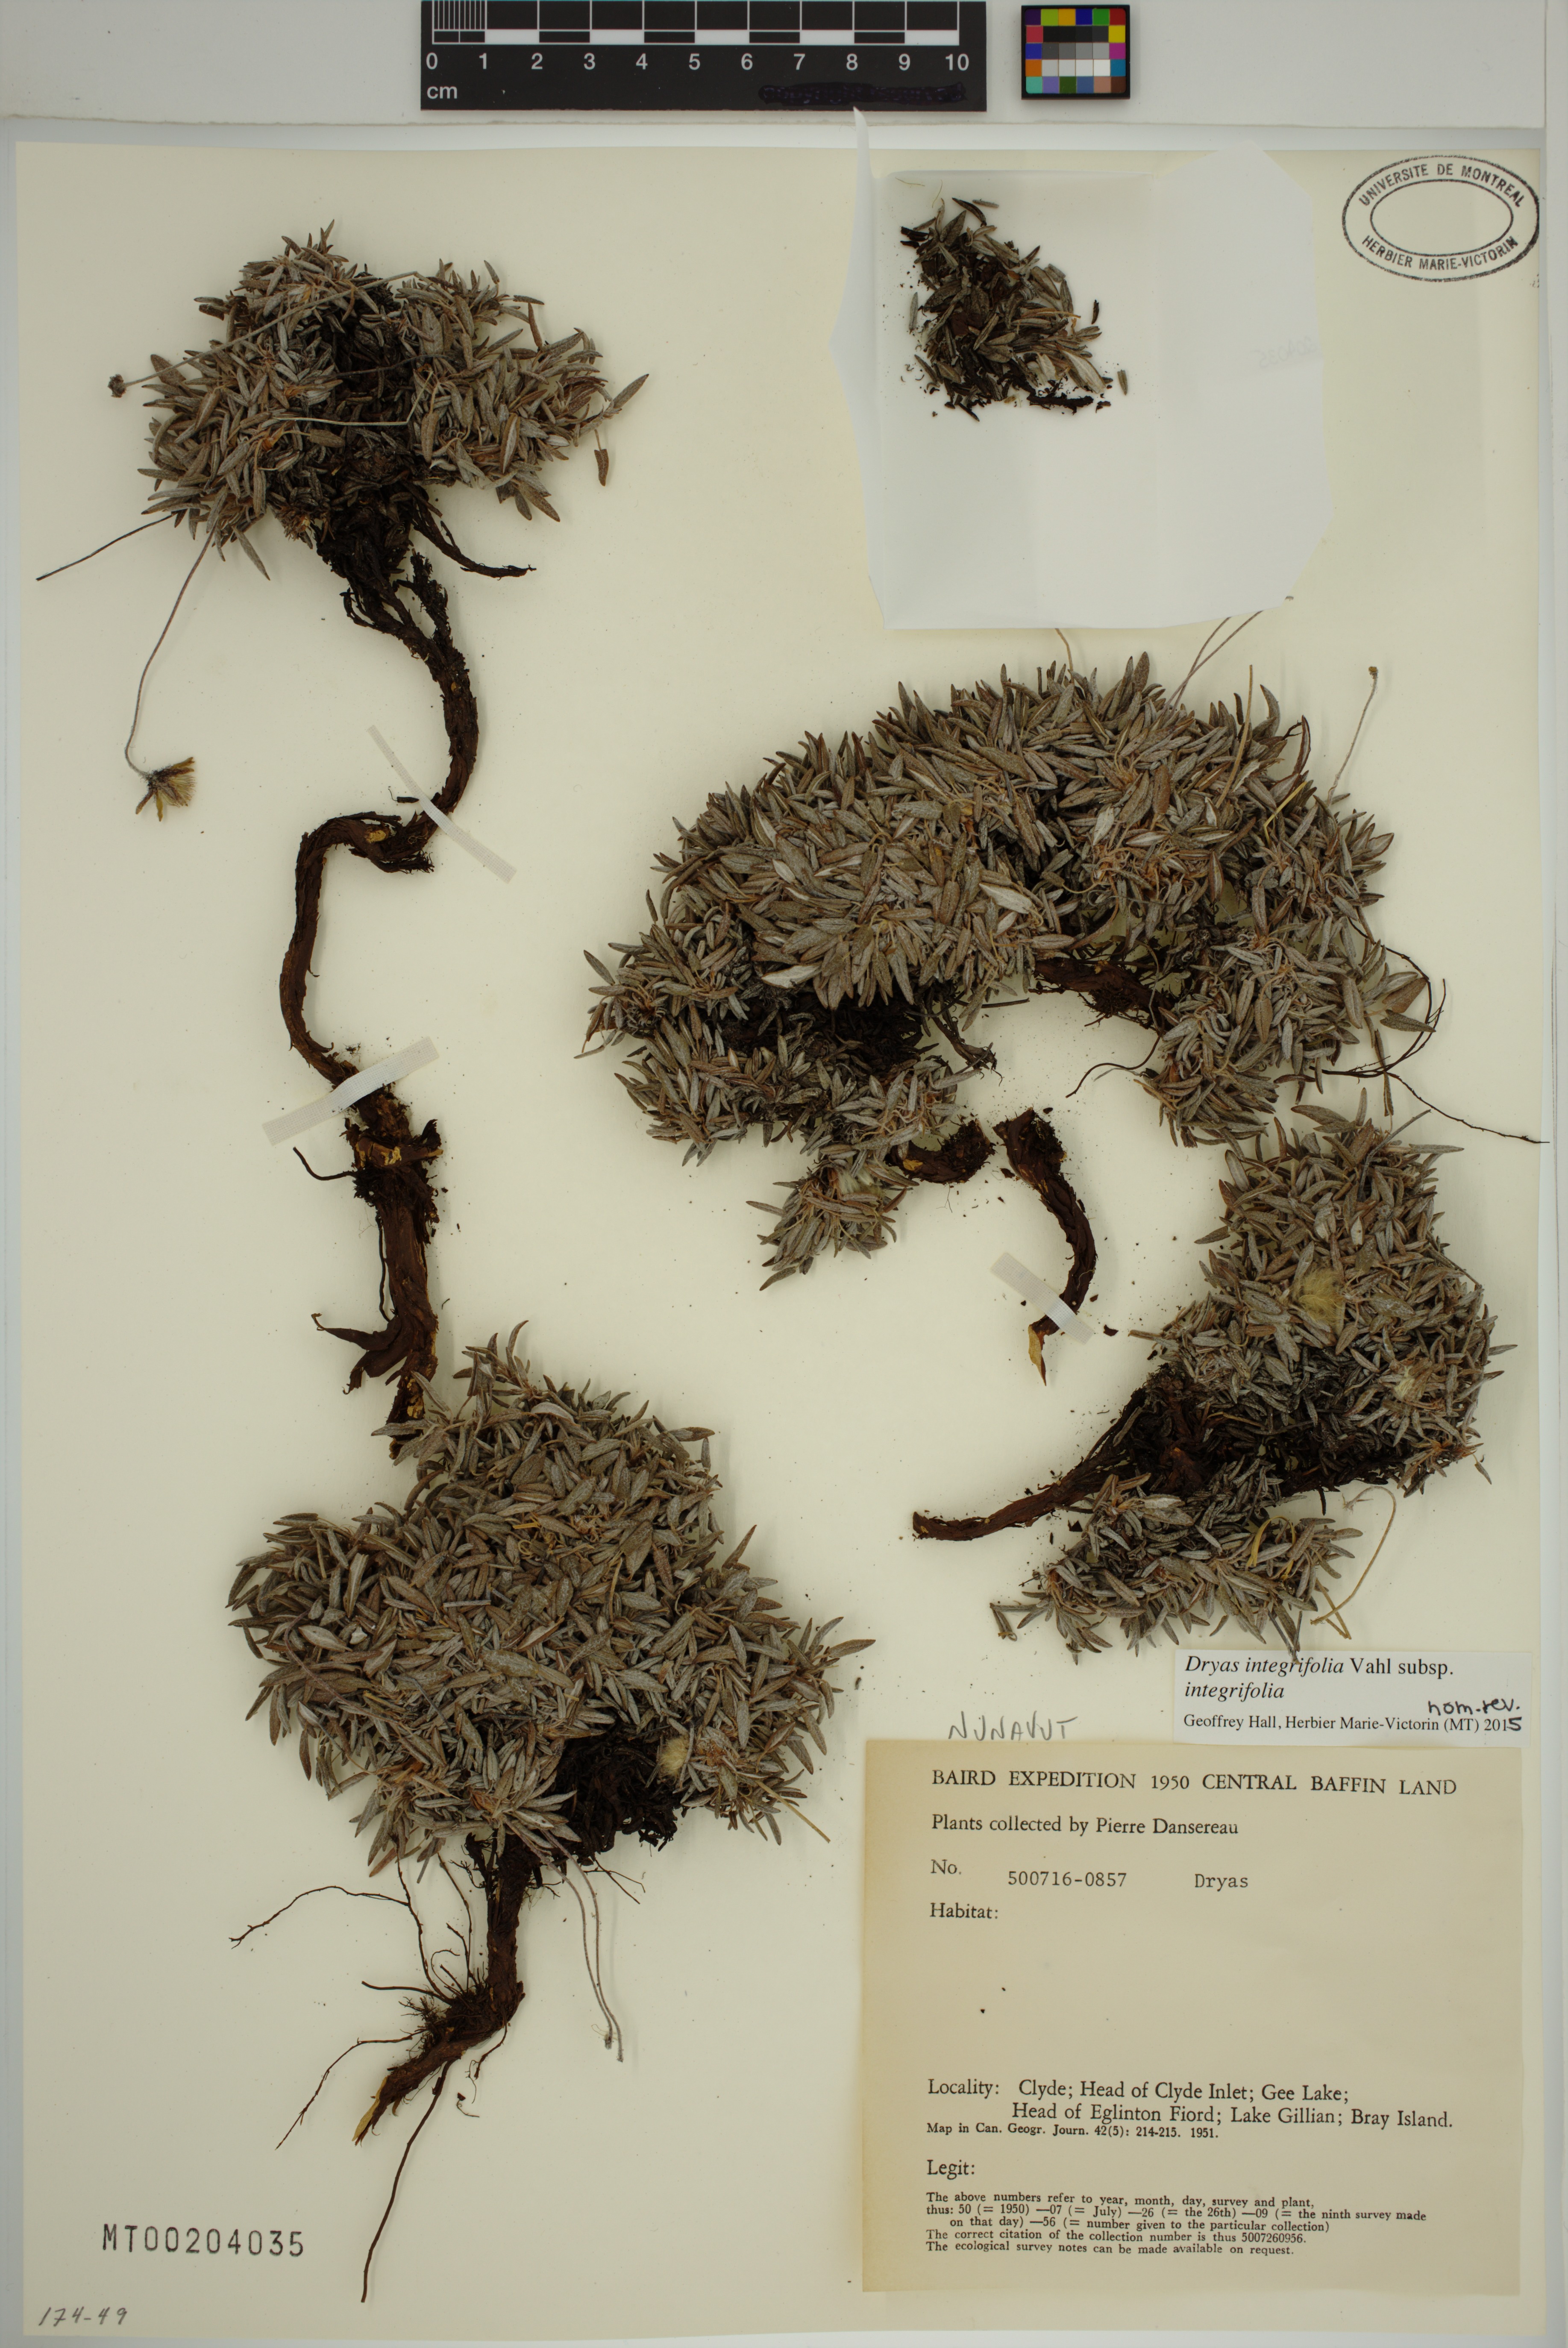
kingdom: Plantae
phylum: Tracheophyta
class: Magnoliopsida
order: Rosales
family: Rosaceae
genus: Dryas
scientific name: Dryas integrifolia
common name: Entire-leaved mountain avens
